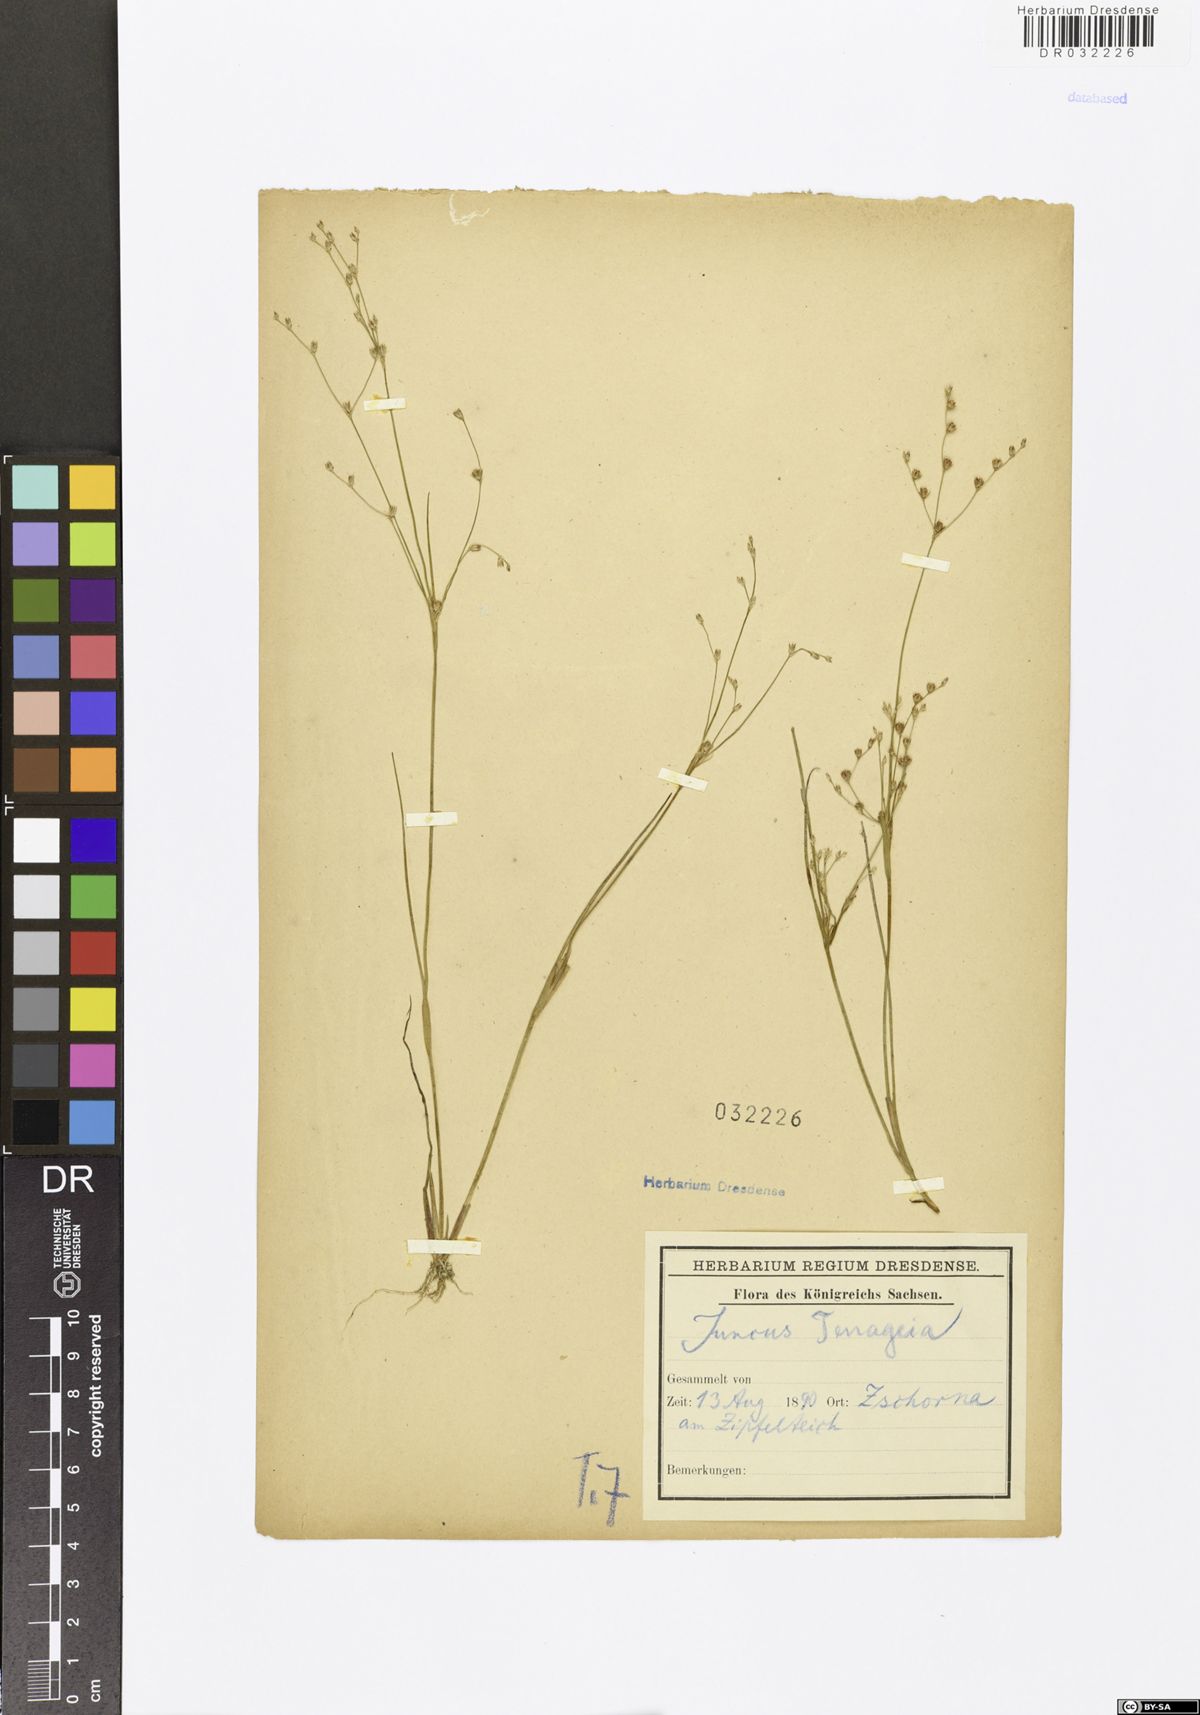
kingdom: Plantae
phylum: Tracheophyta
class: Liliopsida
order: Poales
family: Juncaceae
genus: Juncus
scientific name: Juncus tenageia
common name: Sand rush
